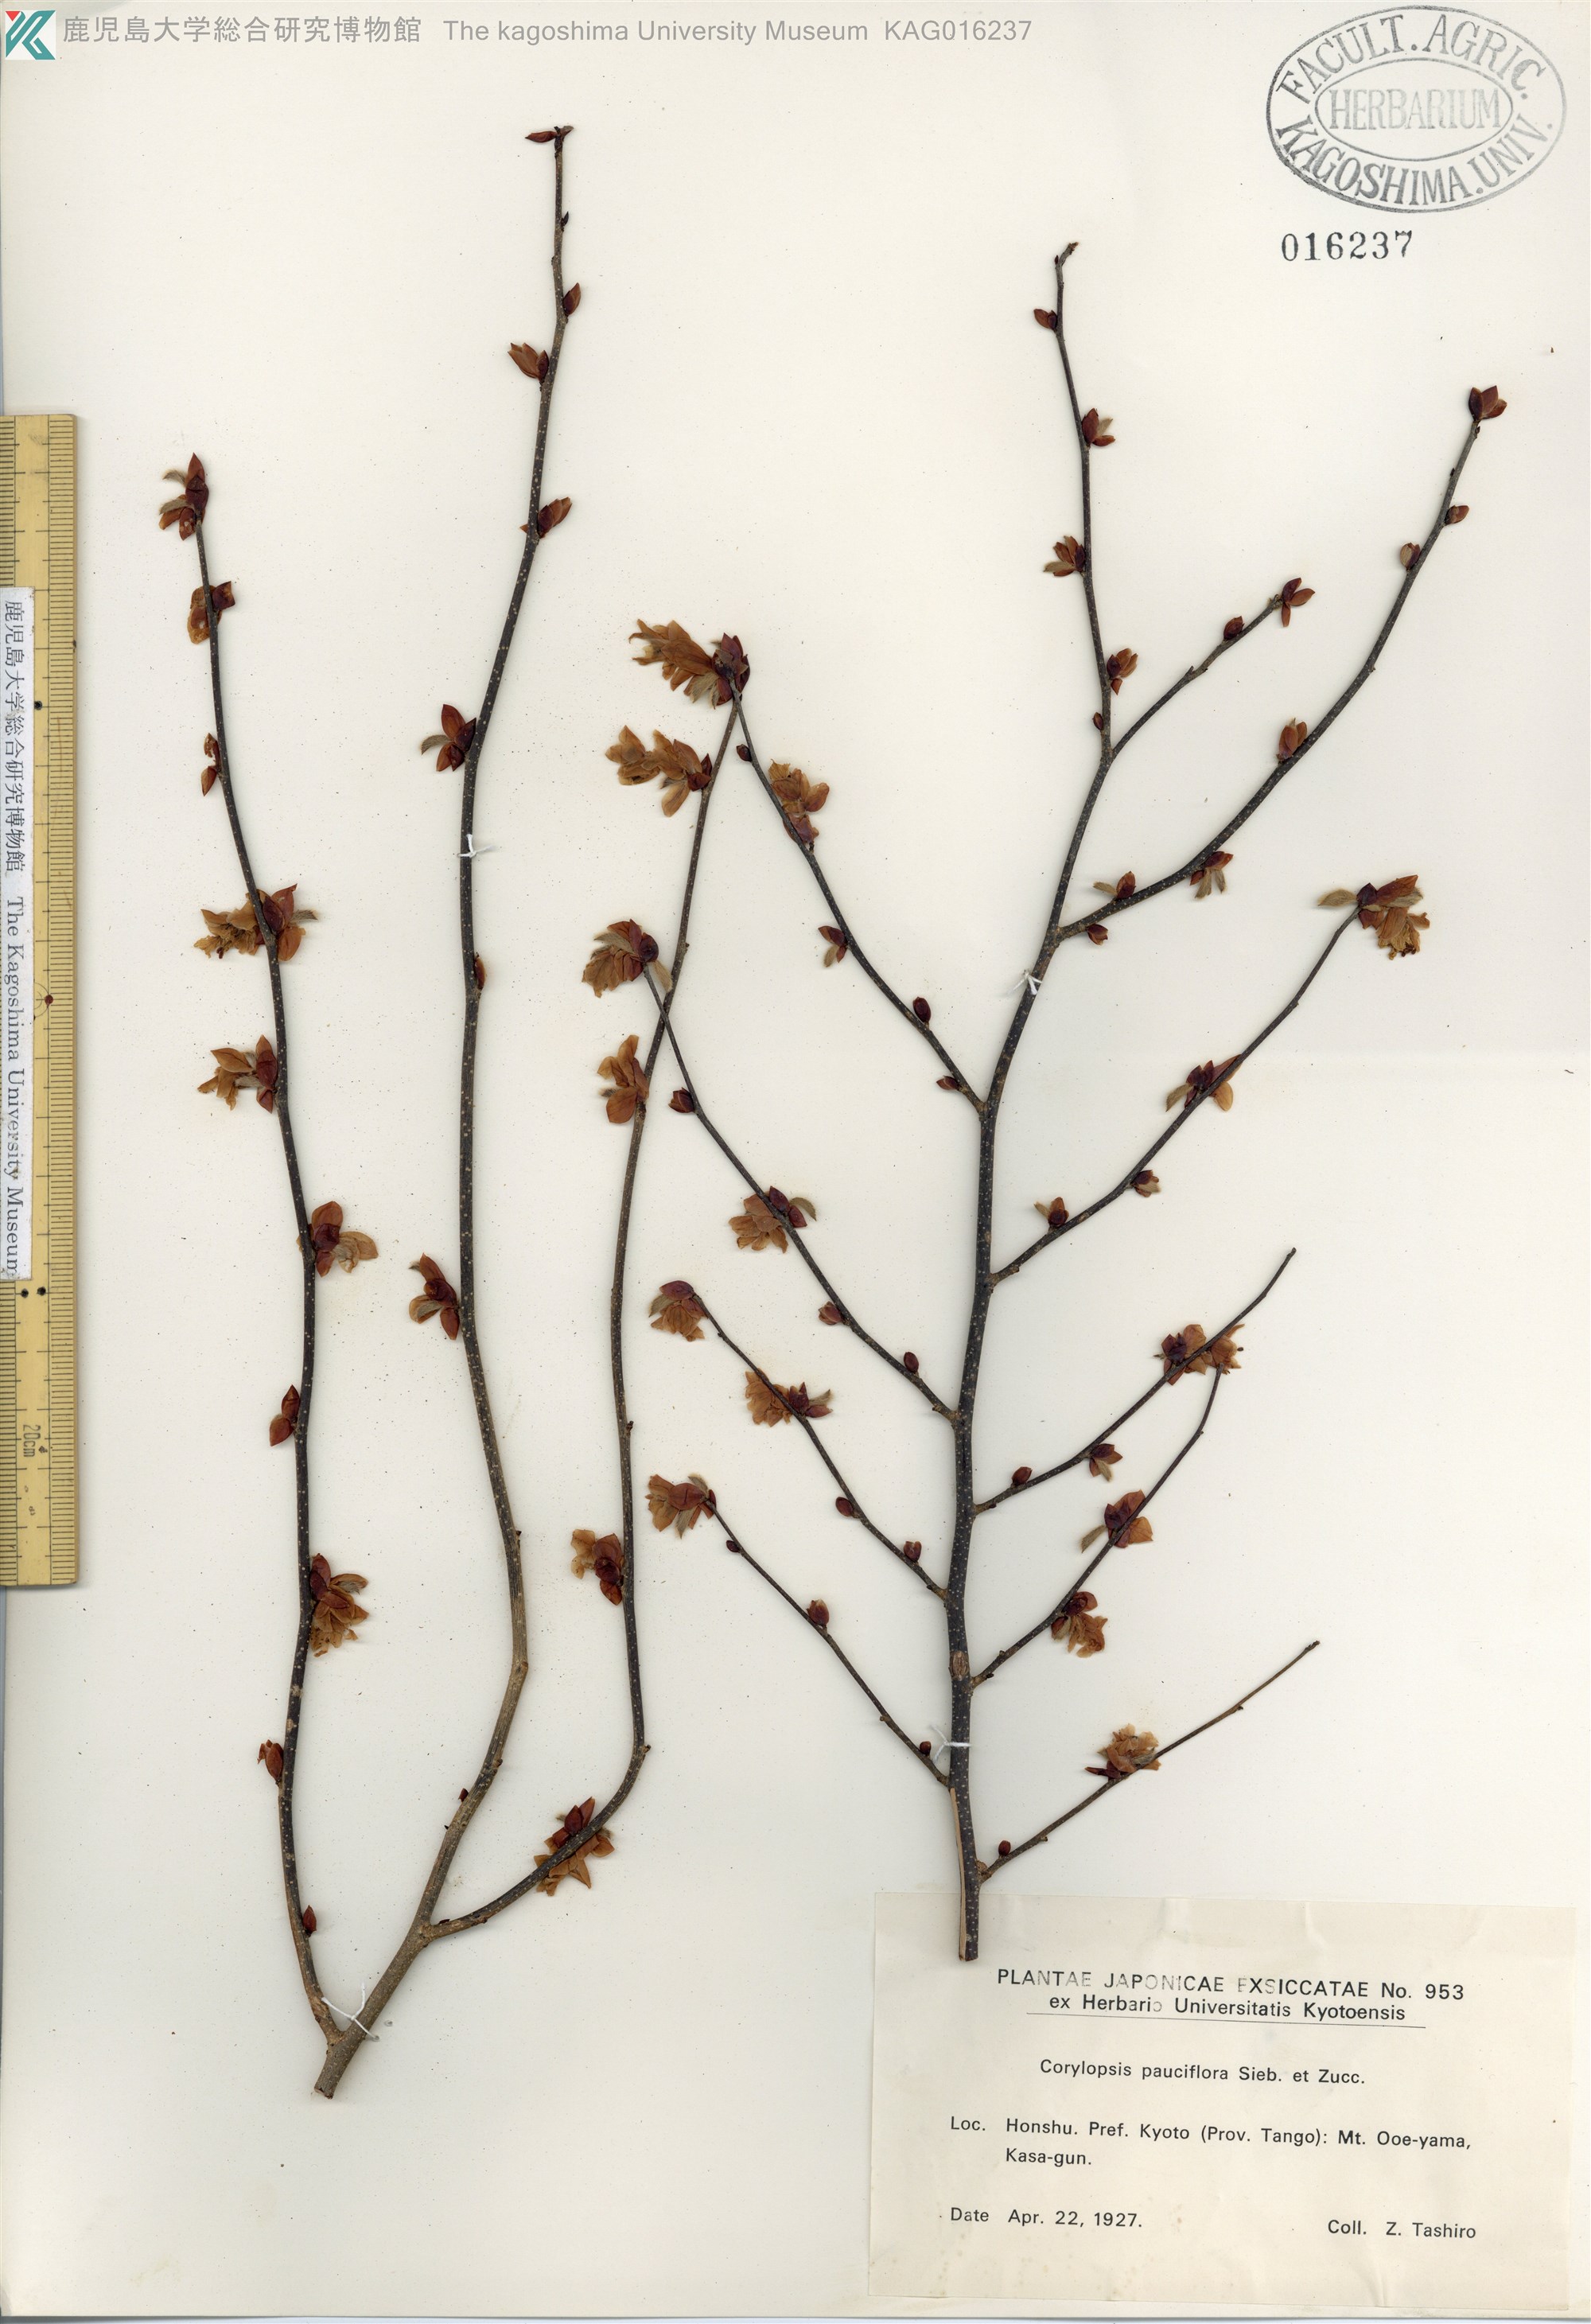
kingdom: Plantae
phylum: Tracheophyta
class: Magnoliopsida
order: Saxifragales
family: Hamamelidaceae
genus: Corylopsis
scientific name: Corylopsis pauciflora
